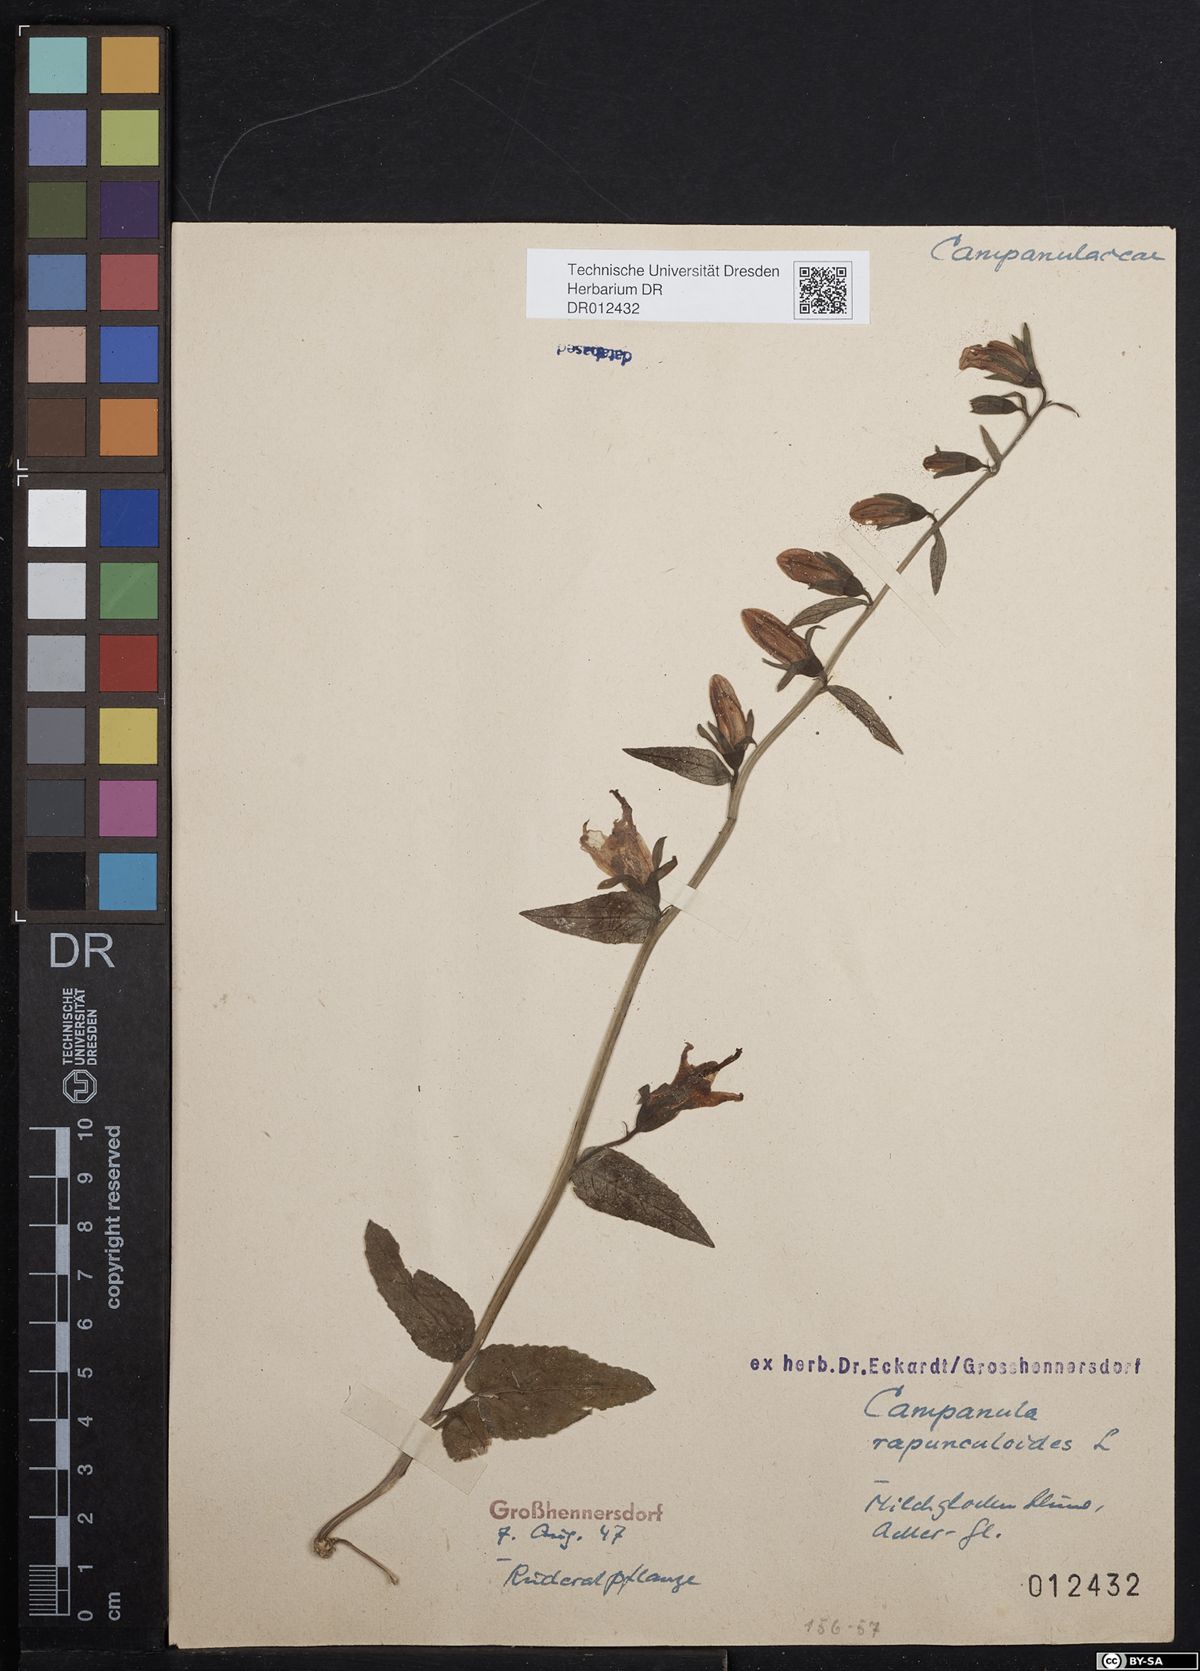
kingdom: Plantae
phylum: Tracheophyta
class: Magnoliopsida
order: Asterales
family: Campanulaceae
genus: Campanula
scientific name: Campanula rapunculoides
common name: Creeping bellflower
